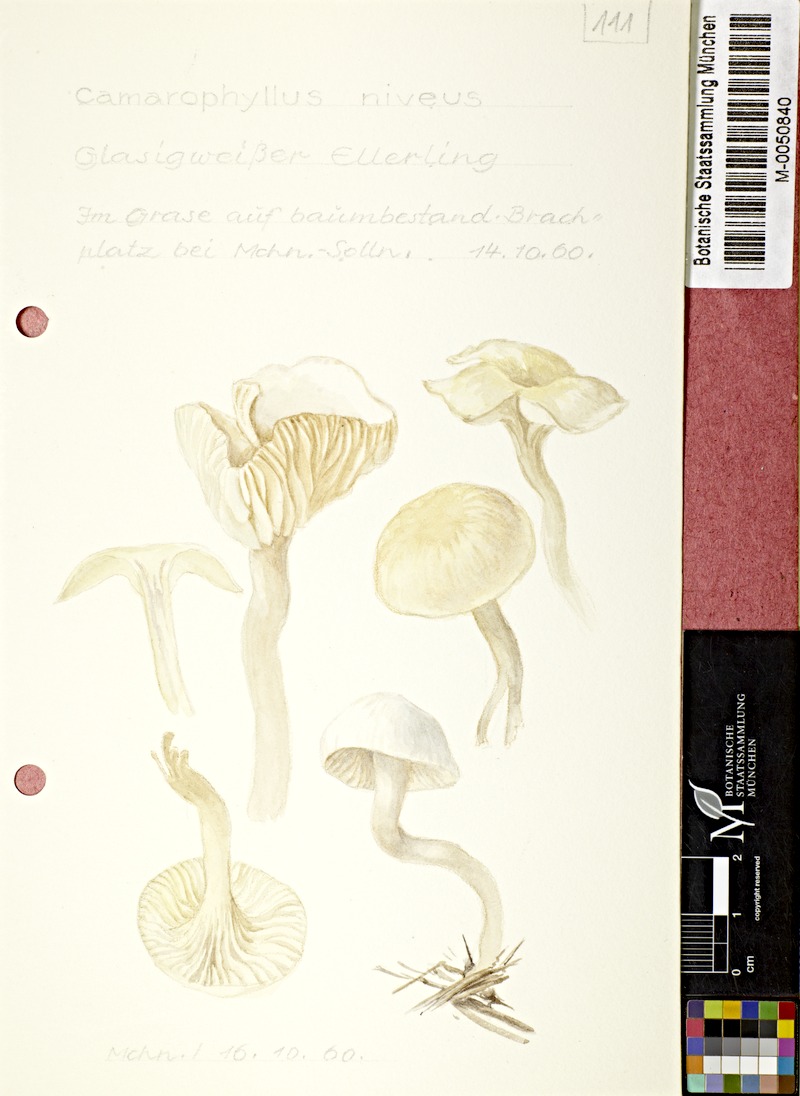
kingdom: Fungi
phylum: Basidiomycota
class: Agaricomycetes
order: Agaricales
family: Hygrophoraceae
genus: Cuphophyllus
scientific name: Cuphophyllus virgineus
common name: Snowy waxcap
